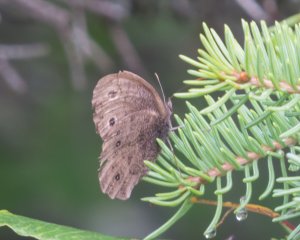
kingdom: Animalia
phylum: Arthropoda
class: Insecta
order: Lepidoptera
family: Nymphalidae
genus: Euptychia
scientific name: Euptychia cymela
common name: Little Wood Satyr
